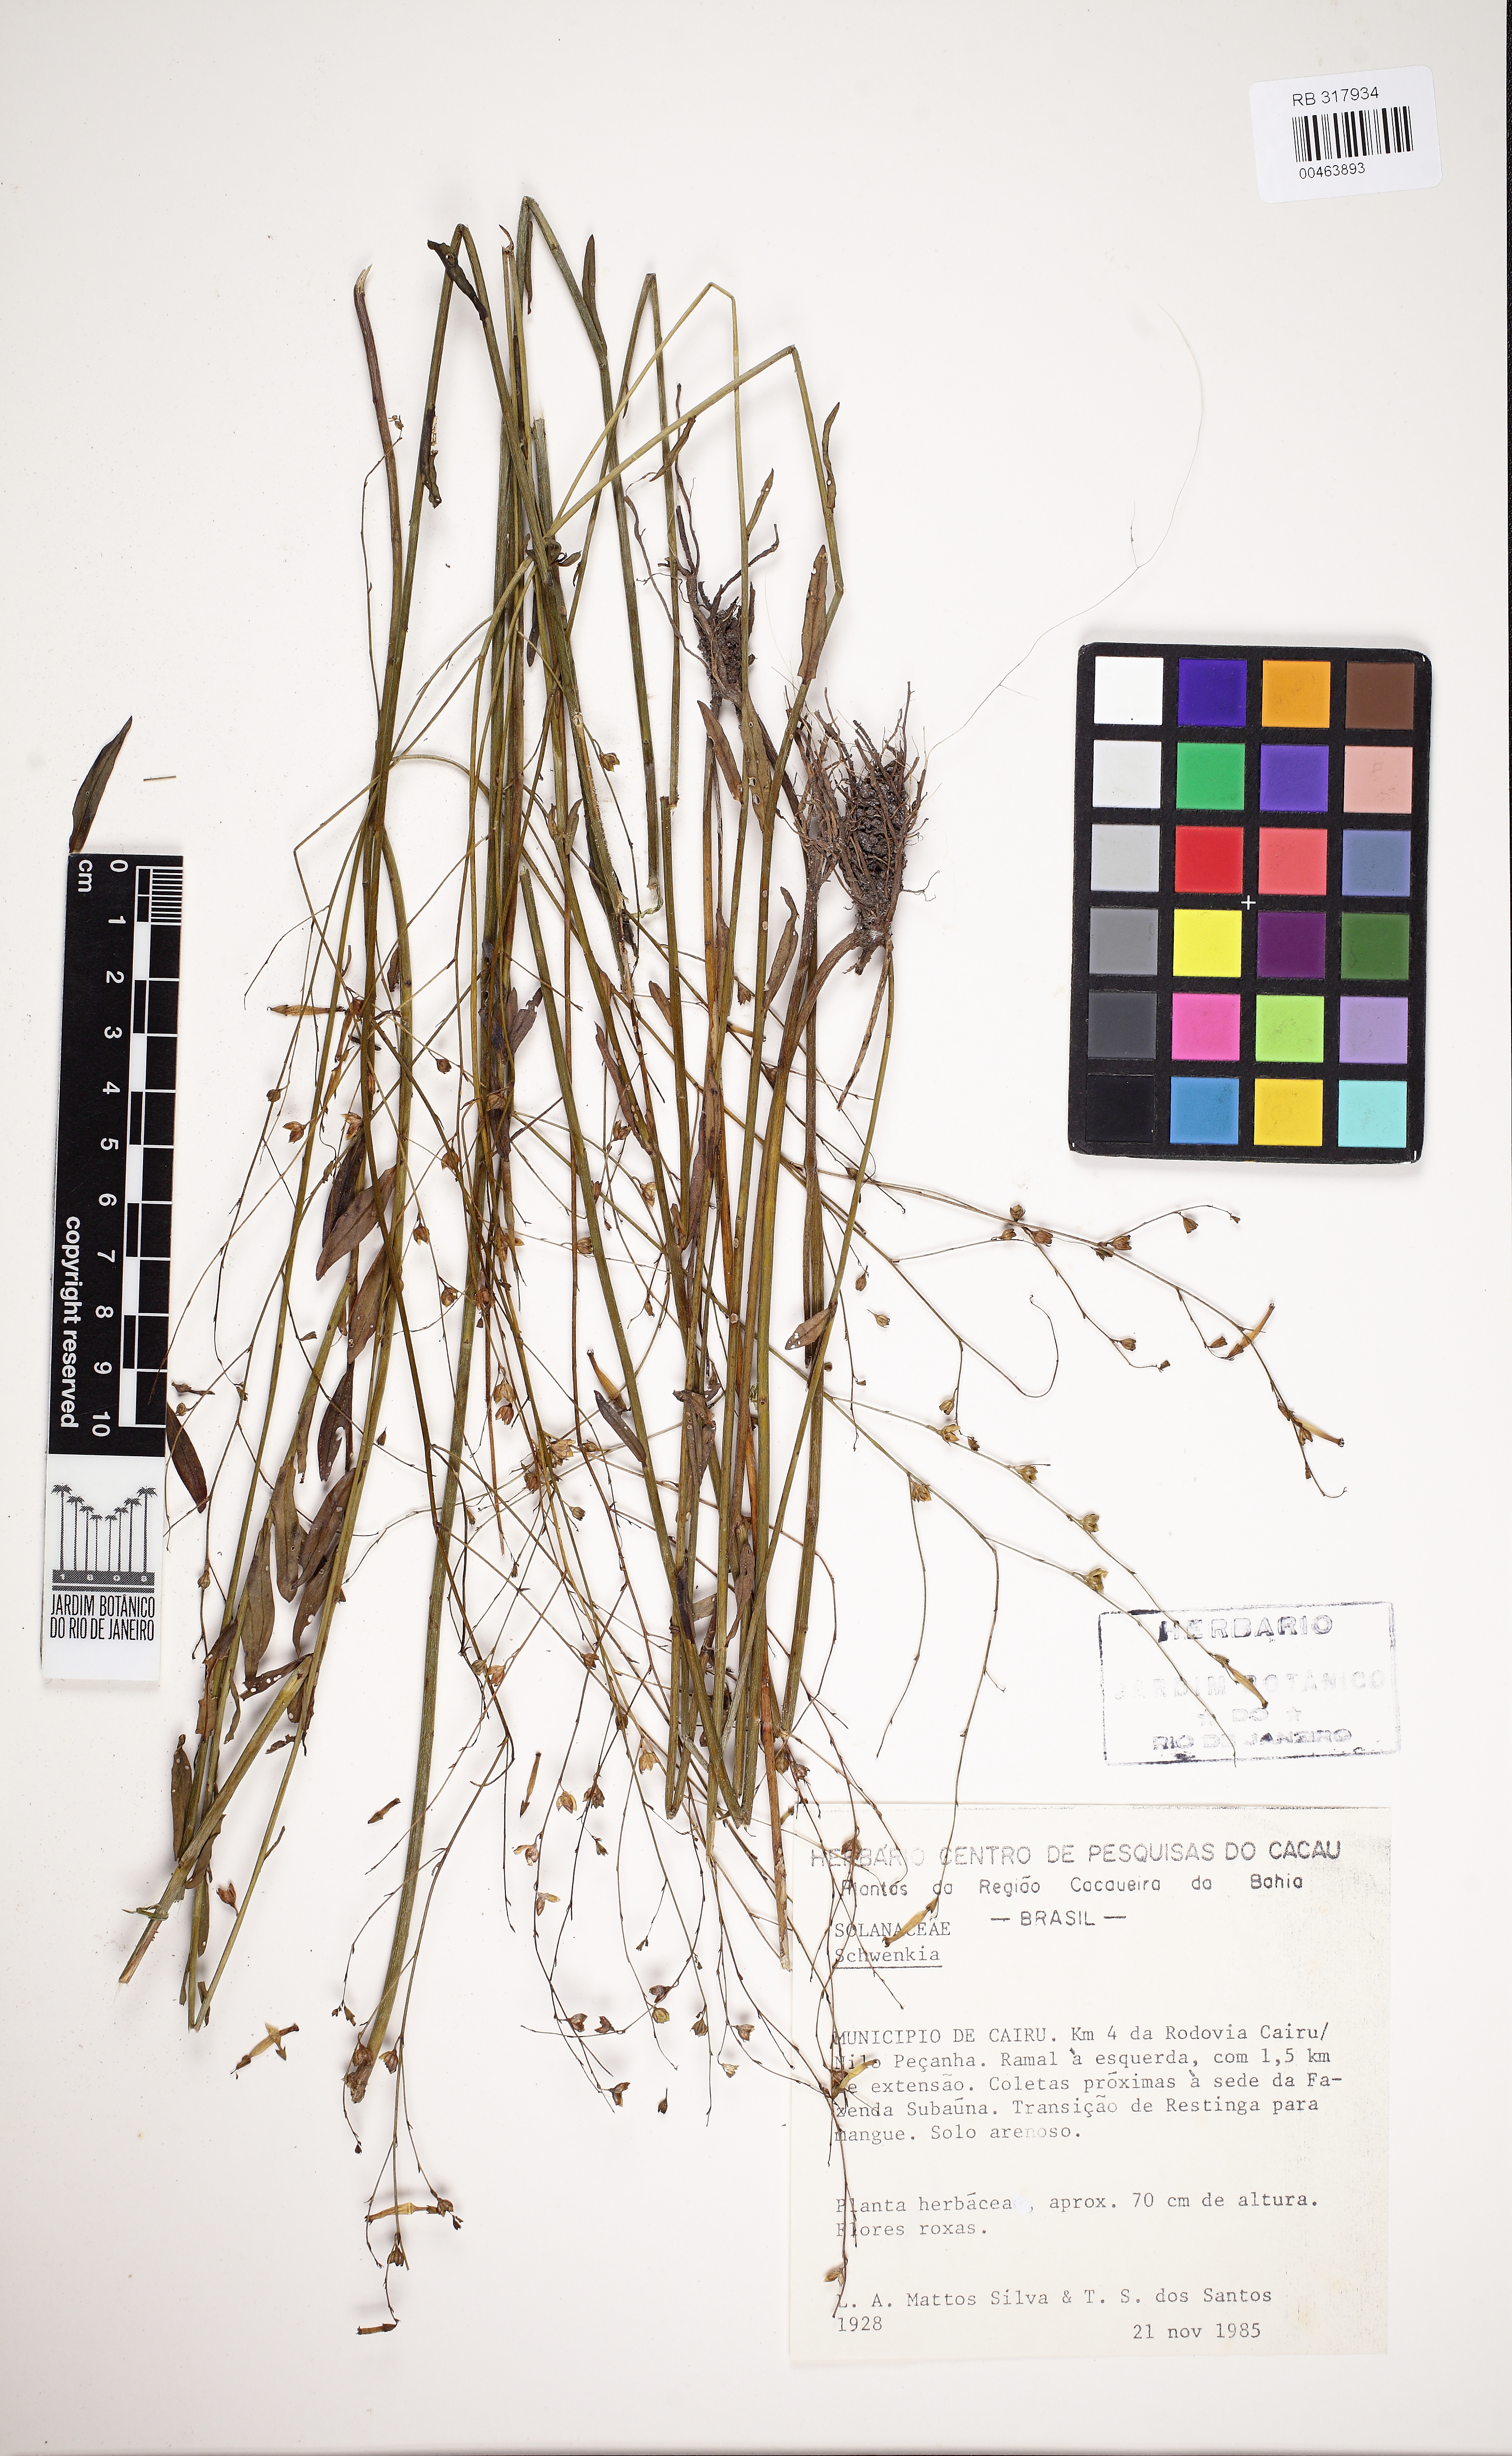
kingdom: Plantae
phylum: Tracheophyta
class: Magnoliopsida
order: Solanales
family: Solanaceae
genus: Schwenckia
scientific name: Schwenckia
